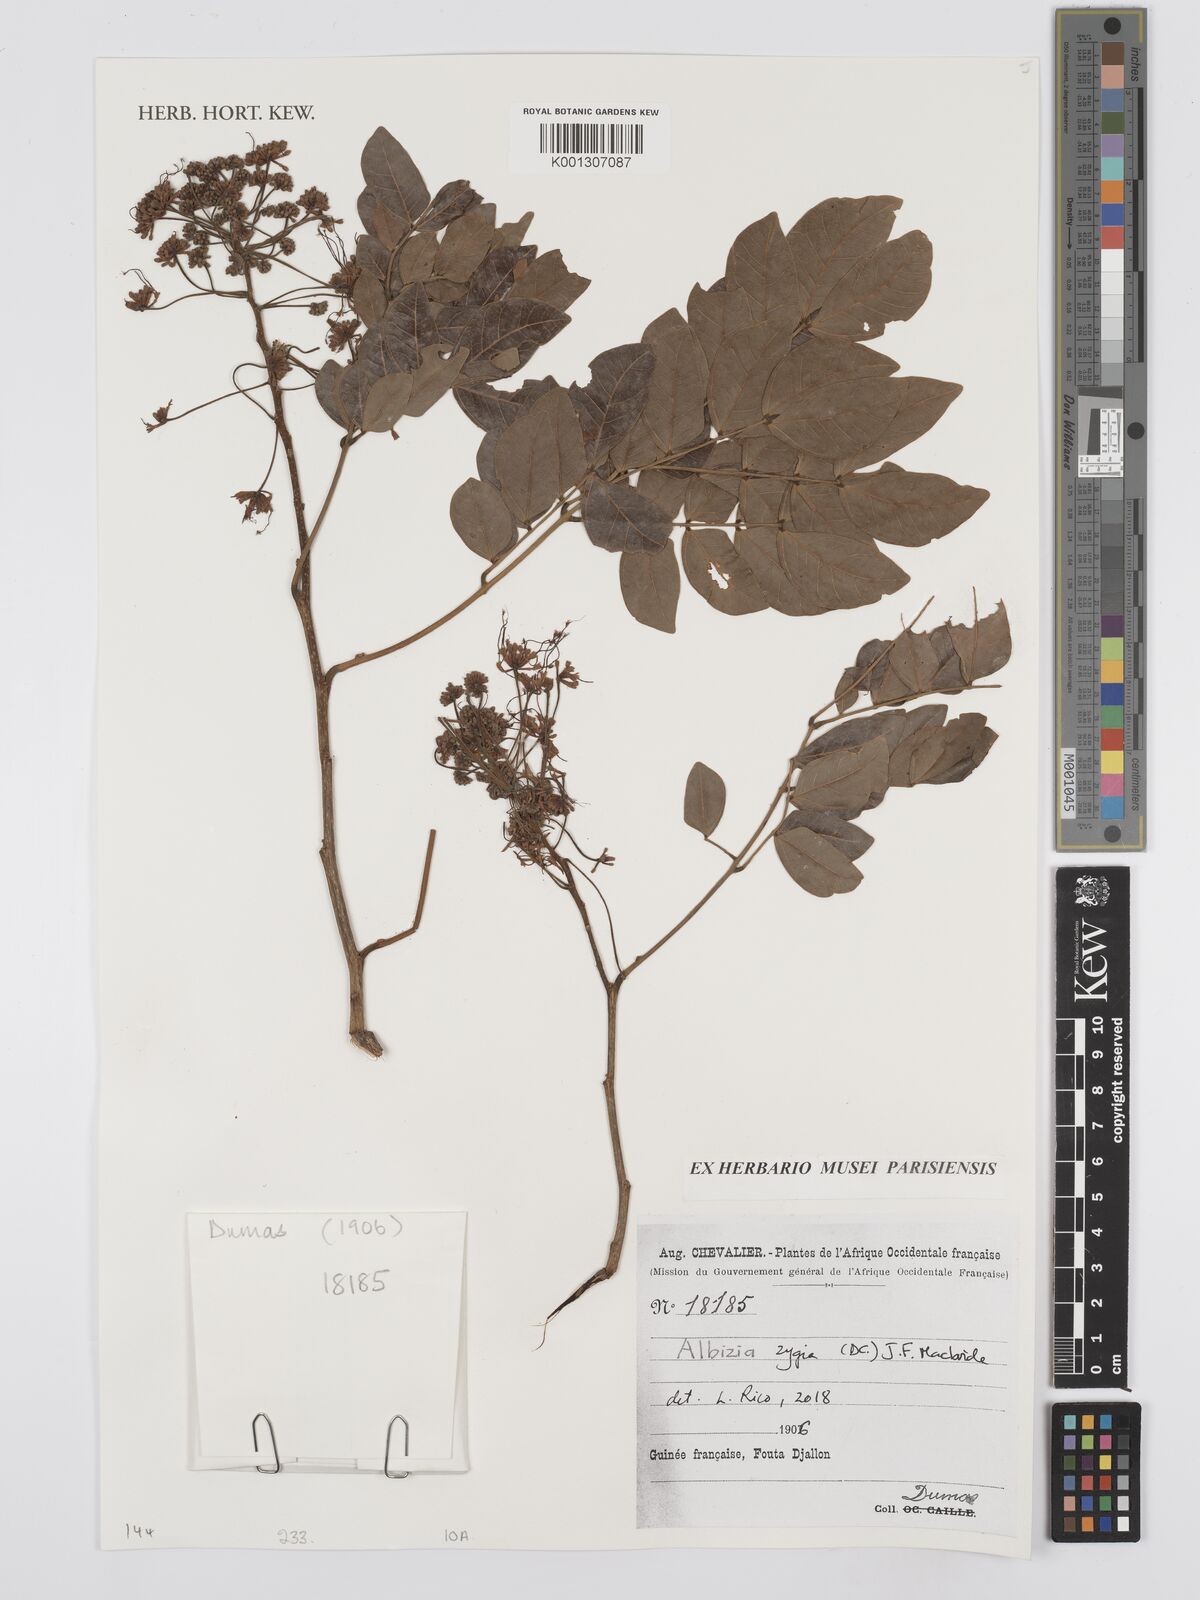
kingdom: Plantae
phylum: Tracheophyta
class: Magnoliopsida
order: Fabales
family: Fabaceae
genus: Albizia
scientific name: Albizia zygia
